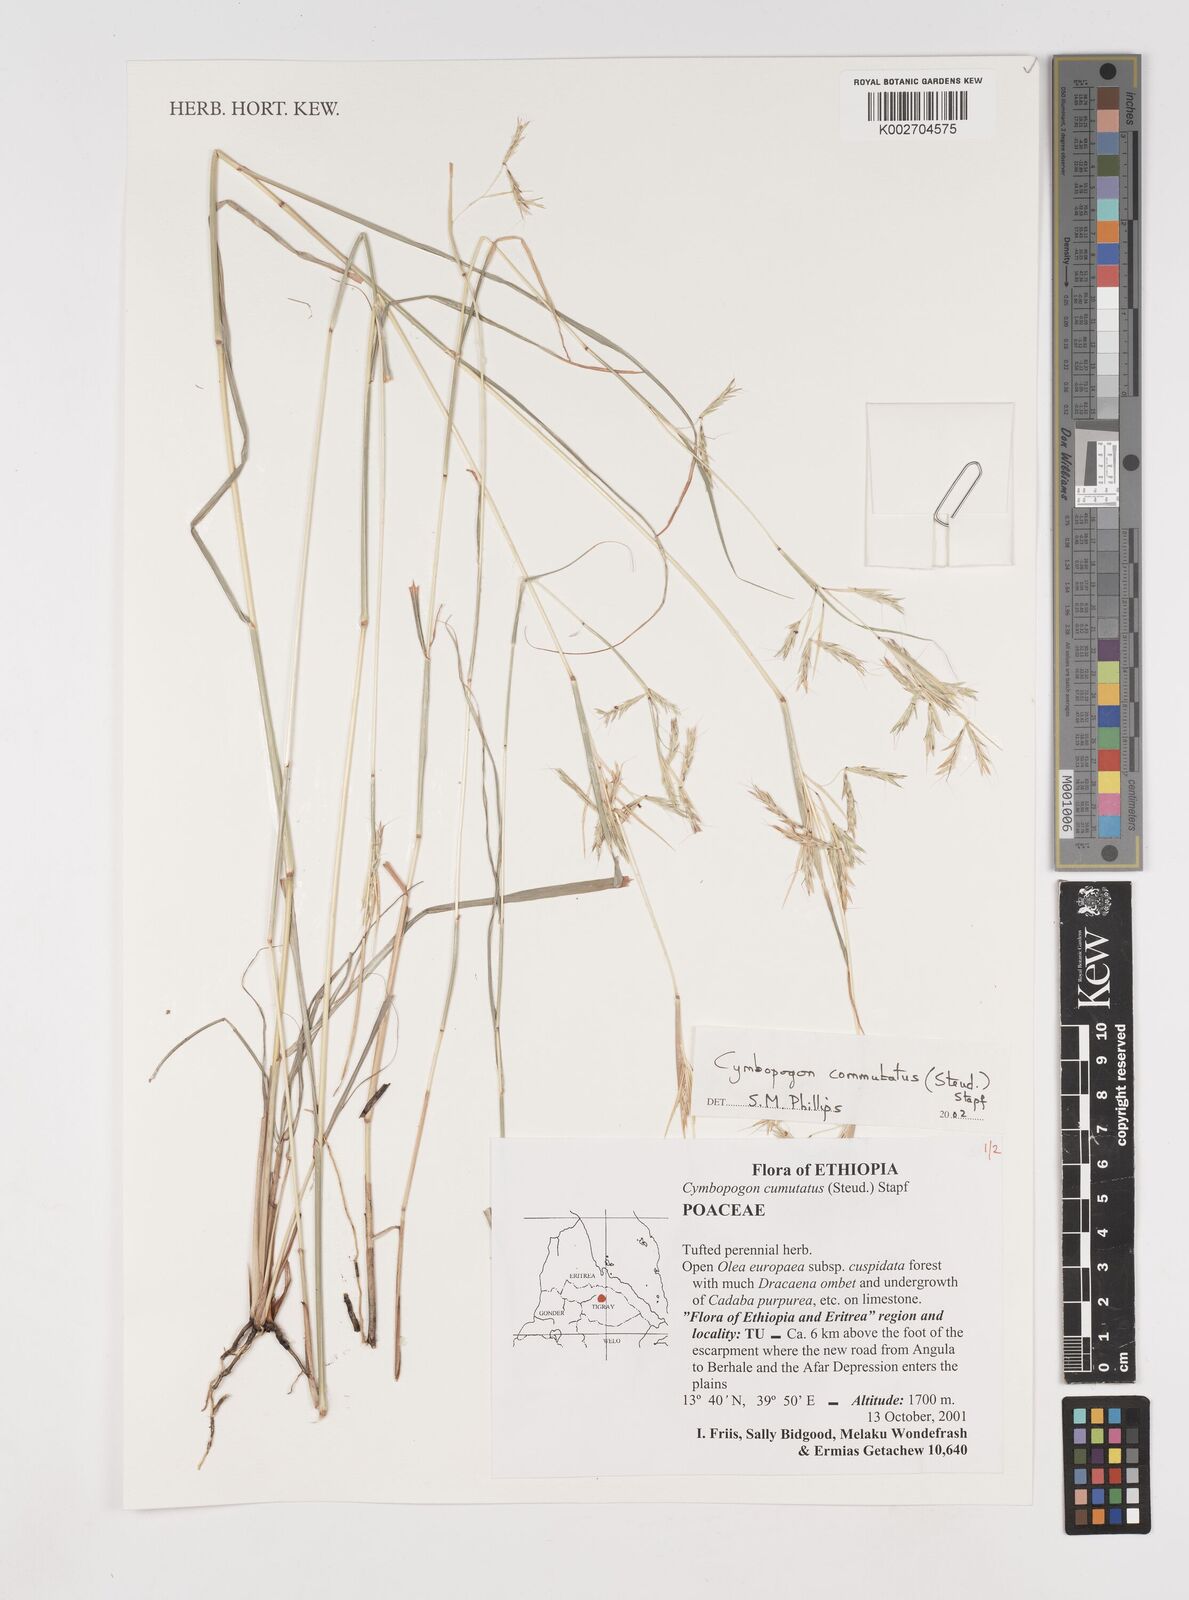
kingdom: Plantae
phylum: Tracheophyta
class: Liliopsida
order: Poales
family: Poaceae
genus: Cymbopogon
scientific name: Cymbopogon commutatus
